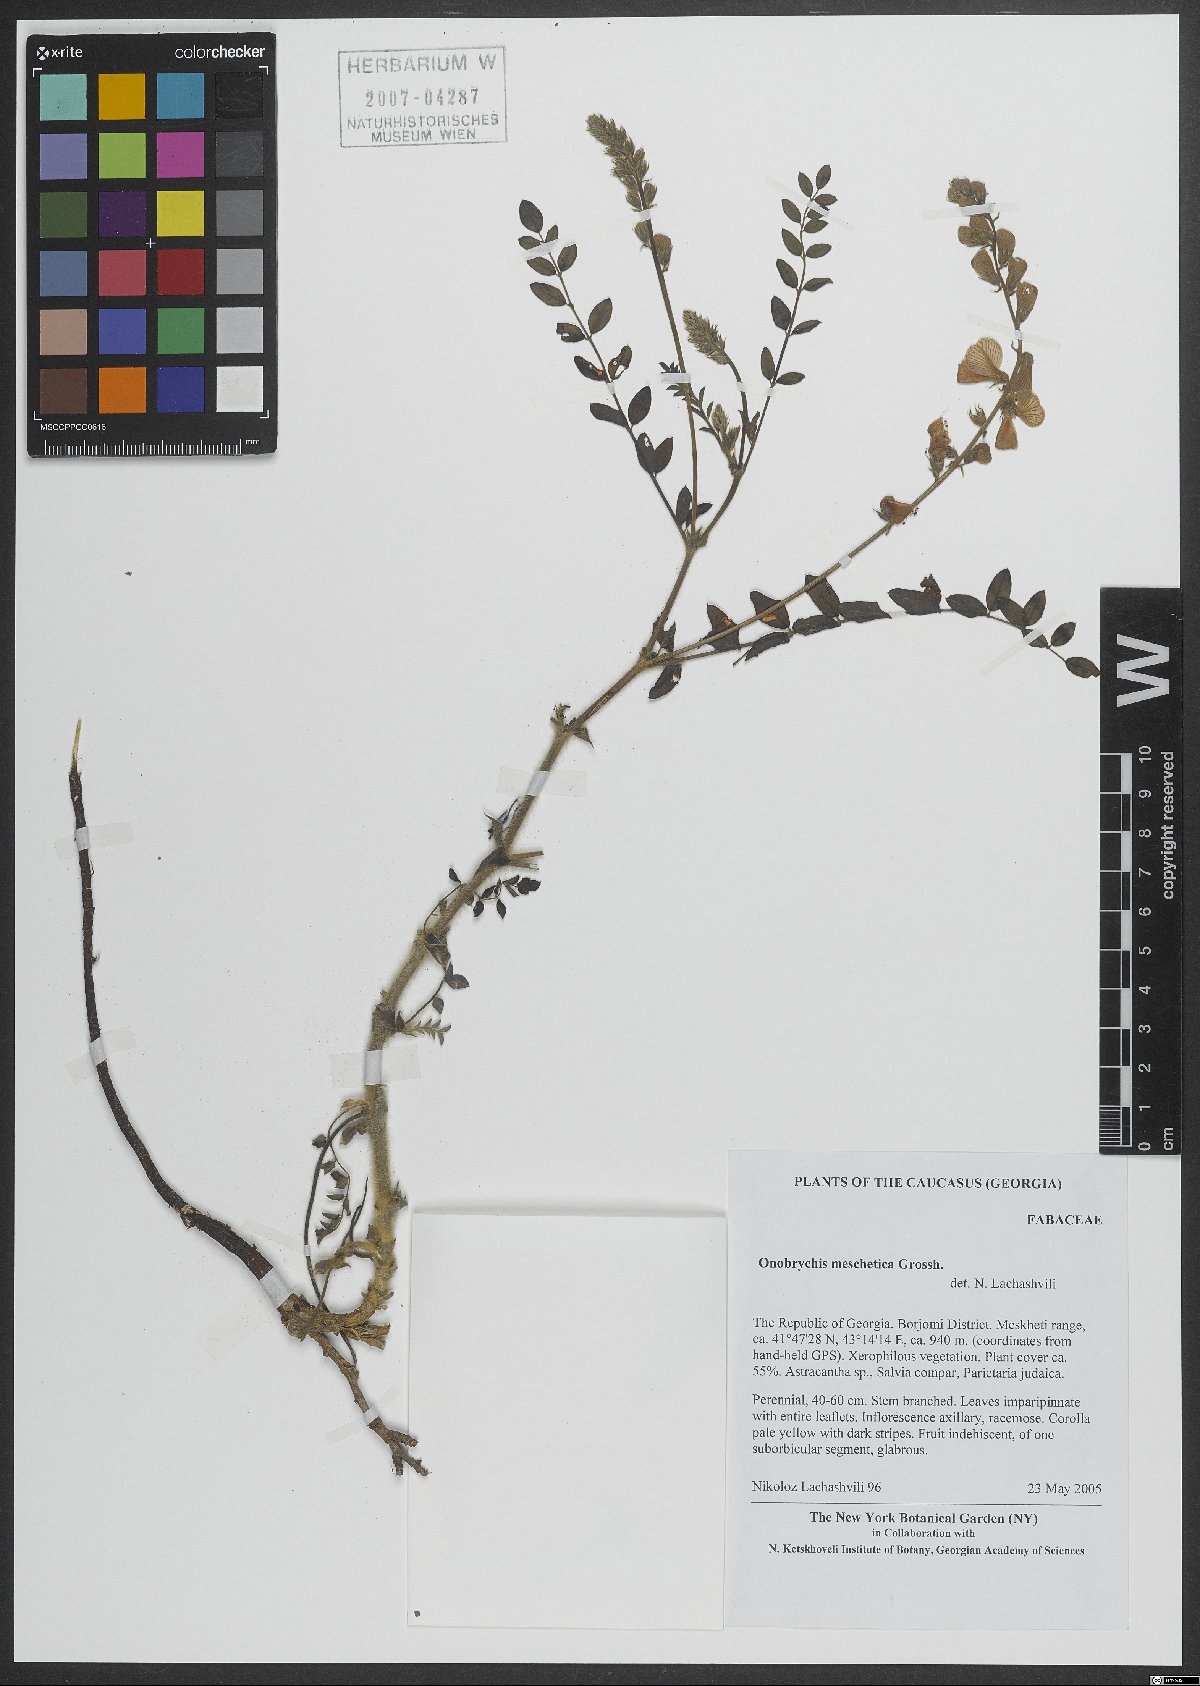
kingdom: Plantae
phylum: Tracheophyta
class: Magnoliopsida
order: Fabales
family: Fabaceae
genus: Onobrychis
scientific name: Onobrychis meschetica
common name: Meskhetian sainfoin
